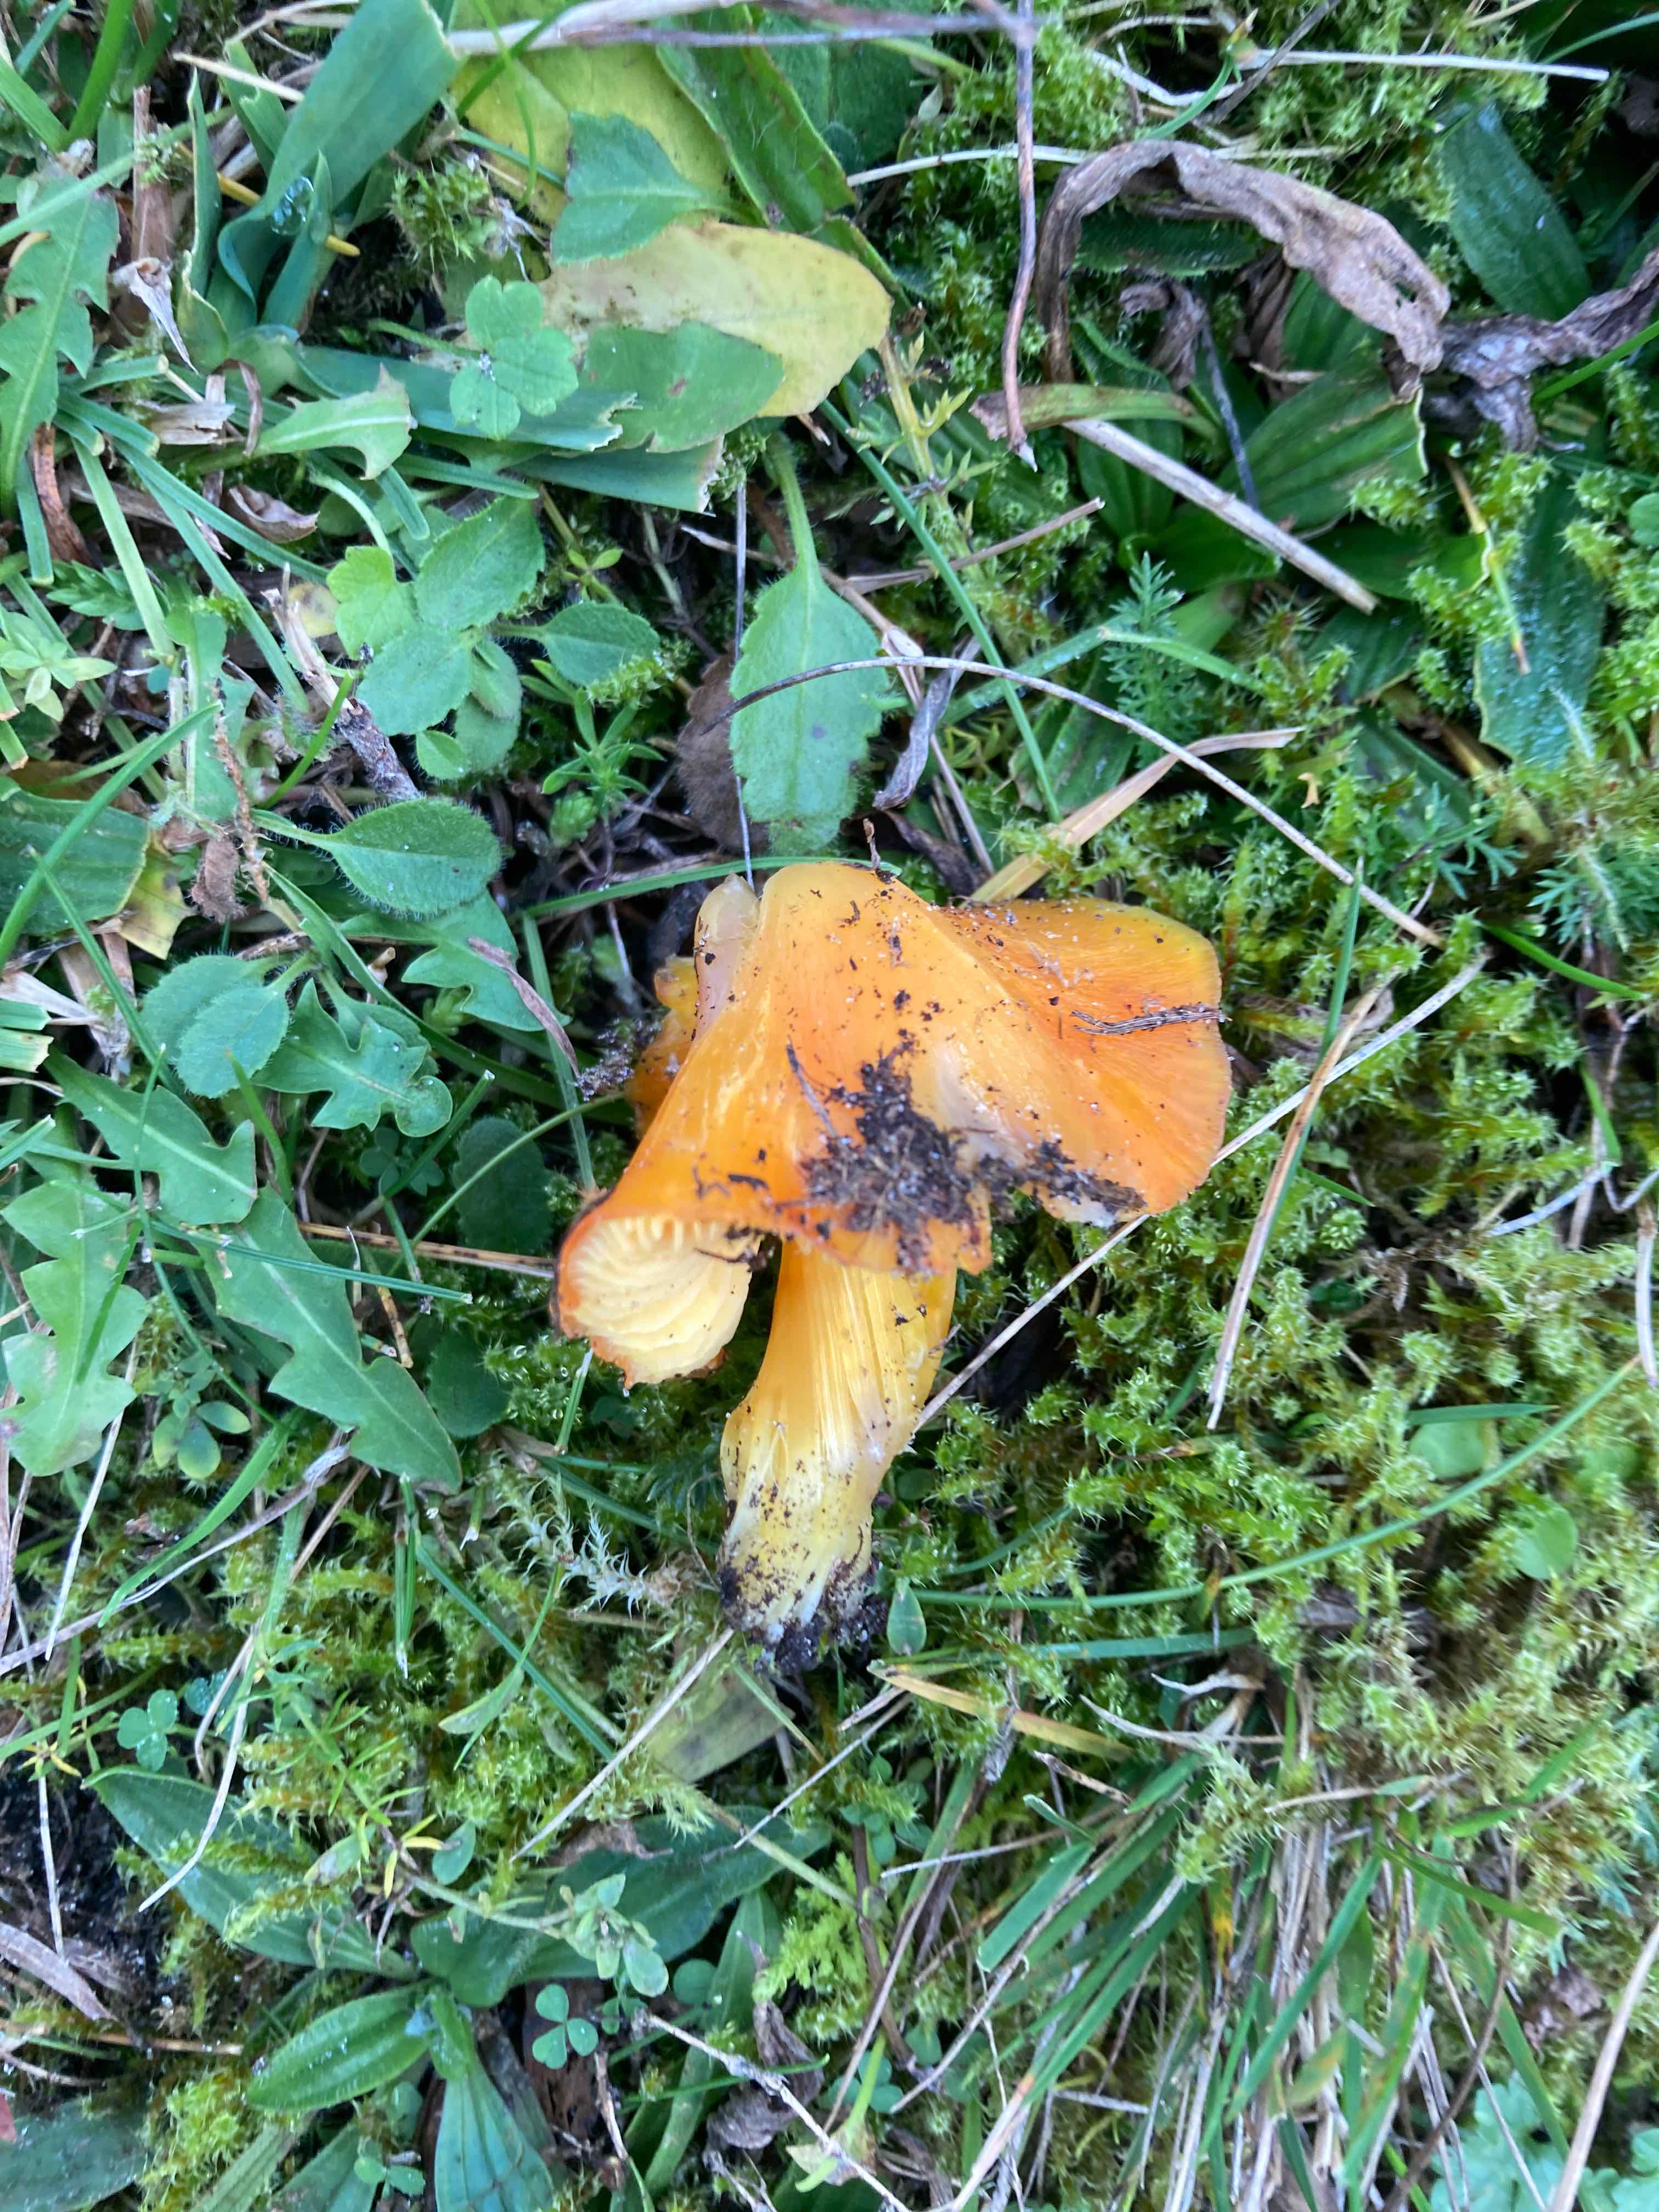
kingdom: Fungi
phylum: Basidiomycota
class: Agaricomycetes
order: Agaricales
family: Hygrophoraceae
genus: Hygrocybe
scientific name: Hygrocybe
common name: vokshat
